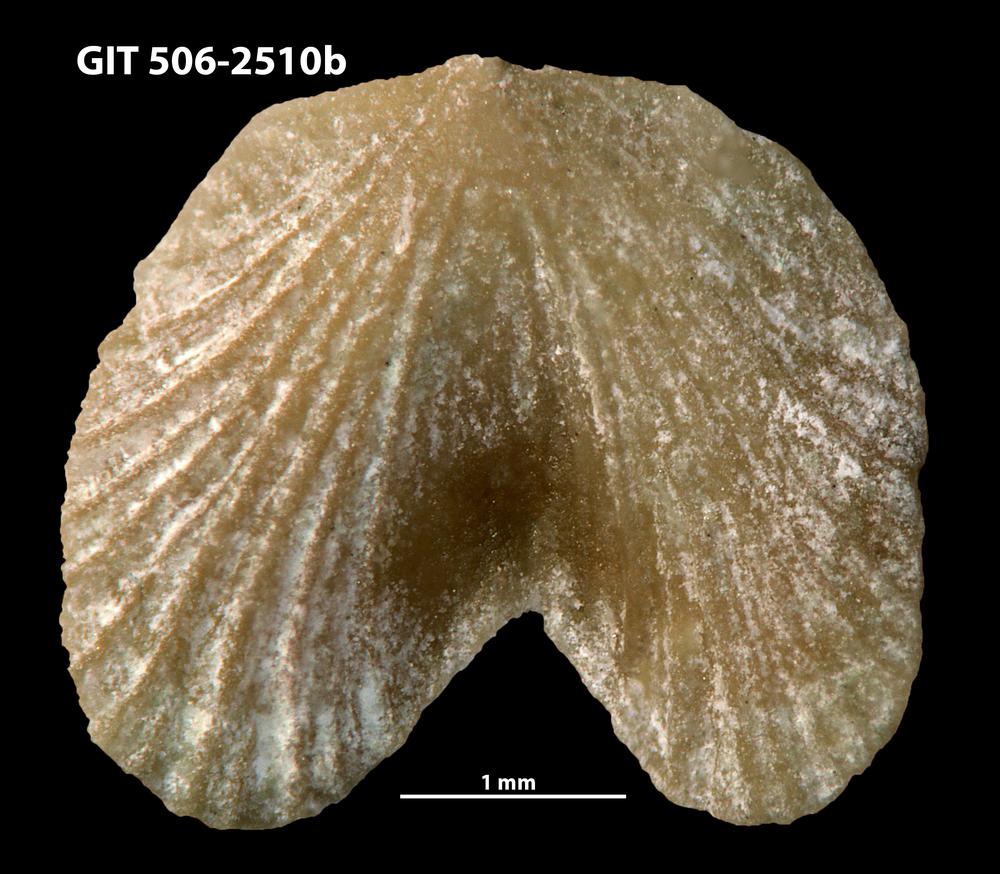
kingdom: Animalia
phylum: Brachiopoda
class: Rhynchonellata
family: Dicoelosiidae
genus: Dicoelosia
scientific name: Dicoelosia baltica
